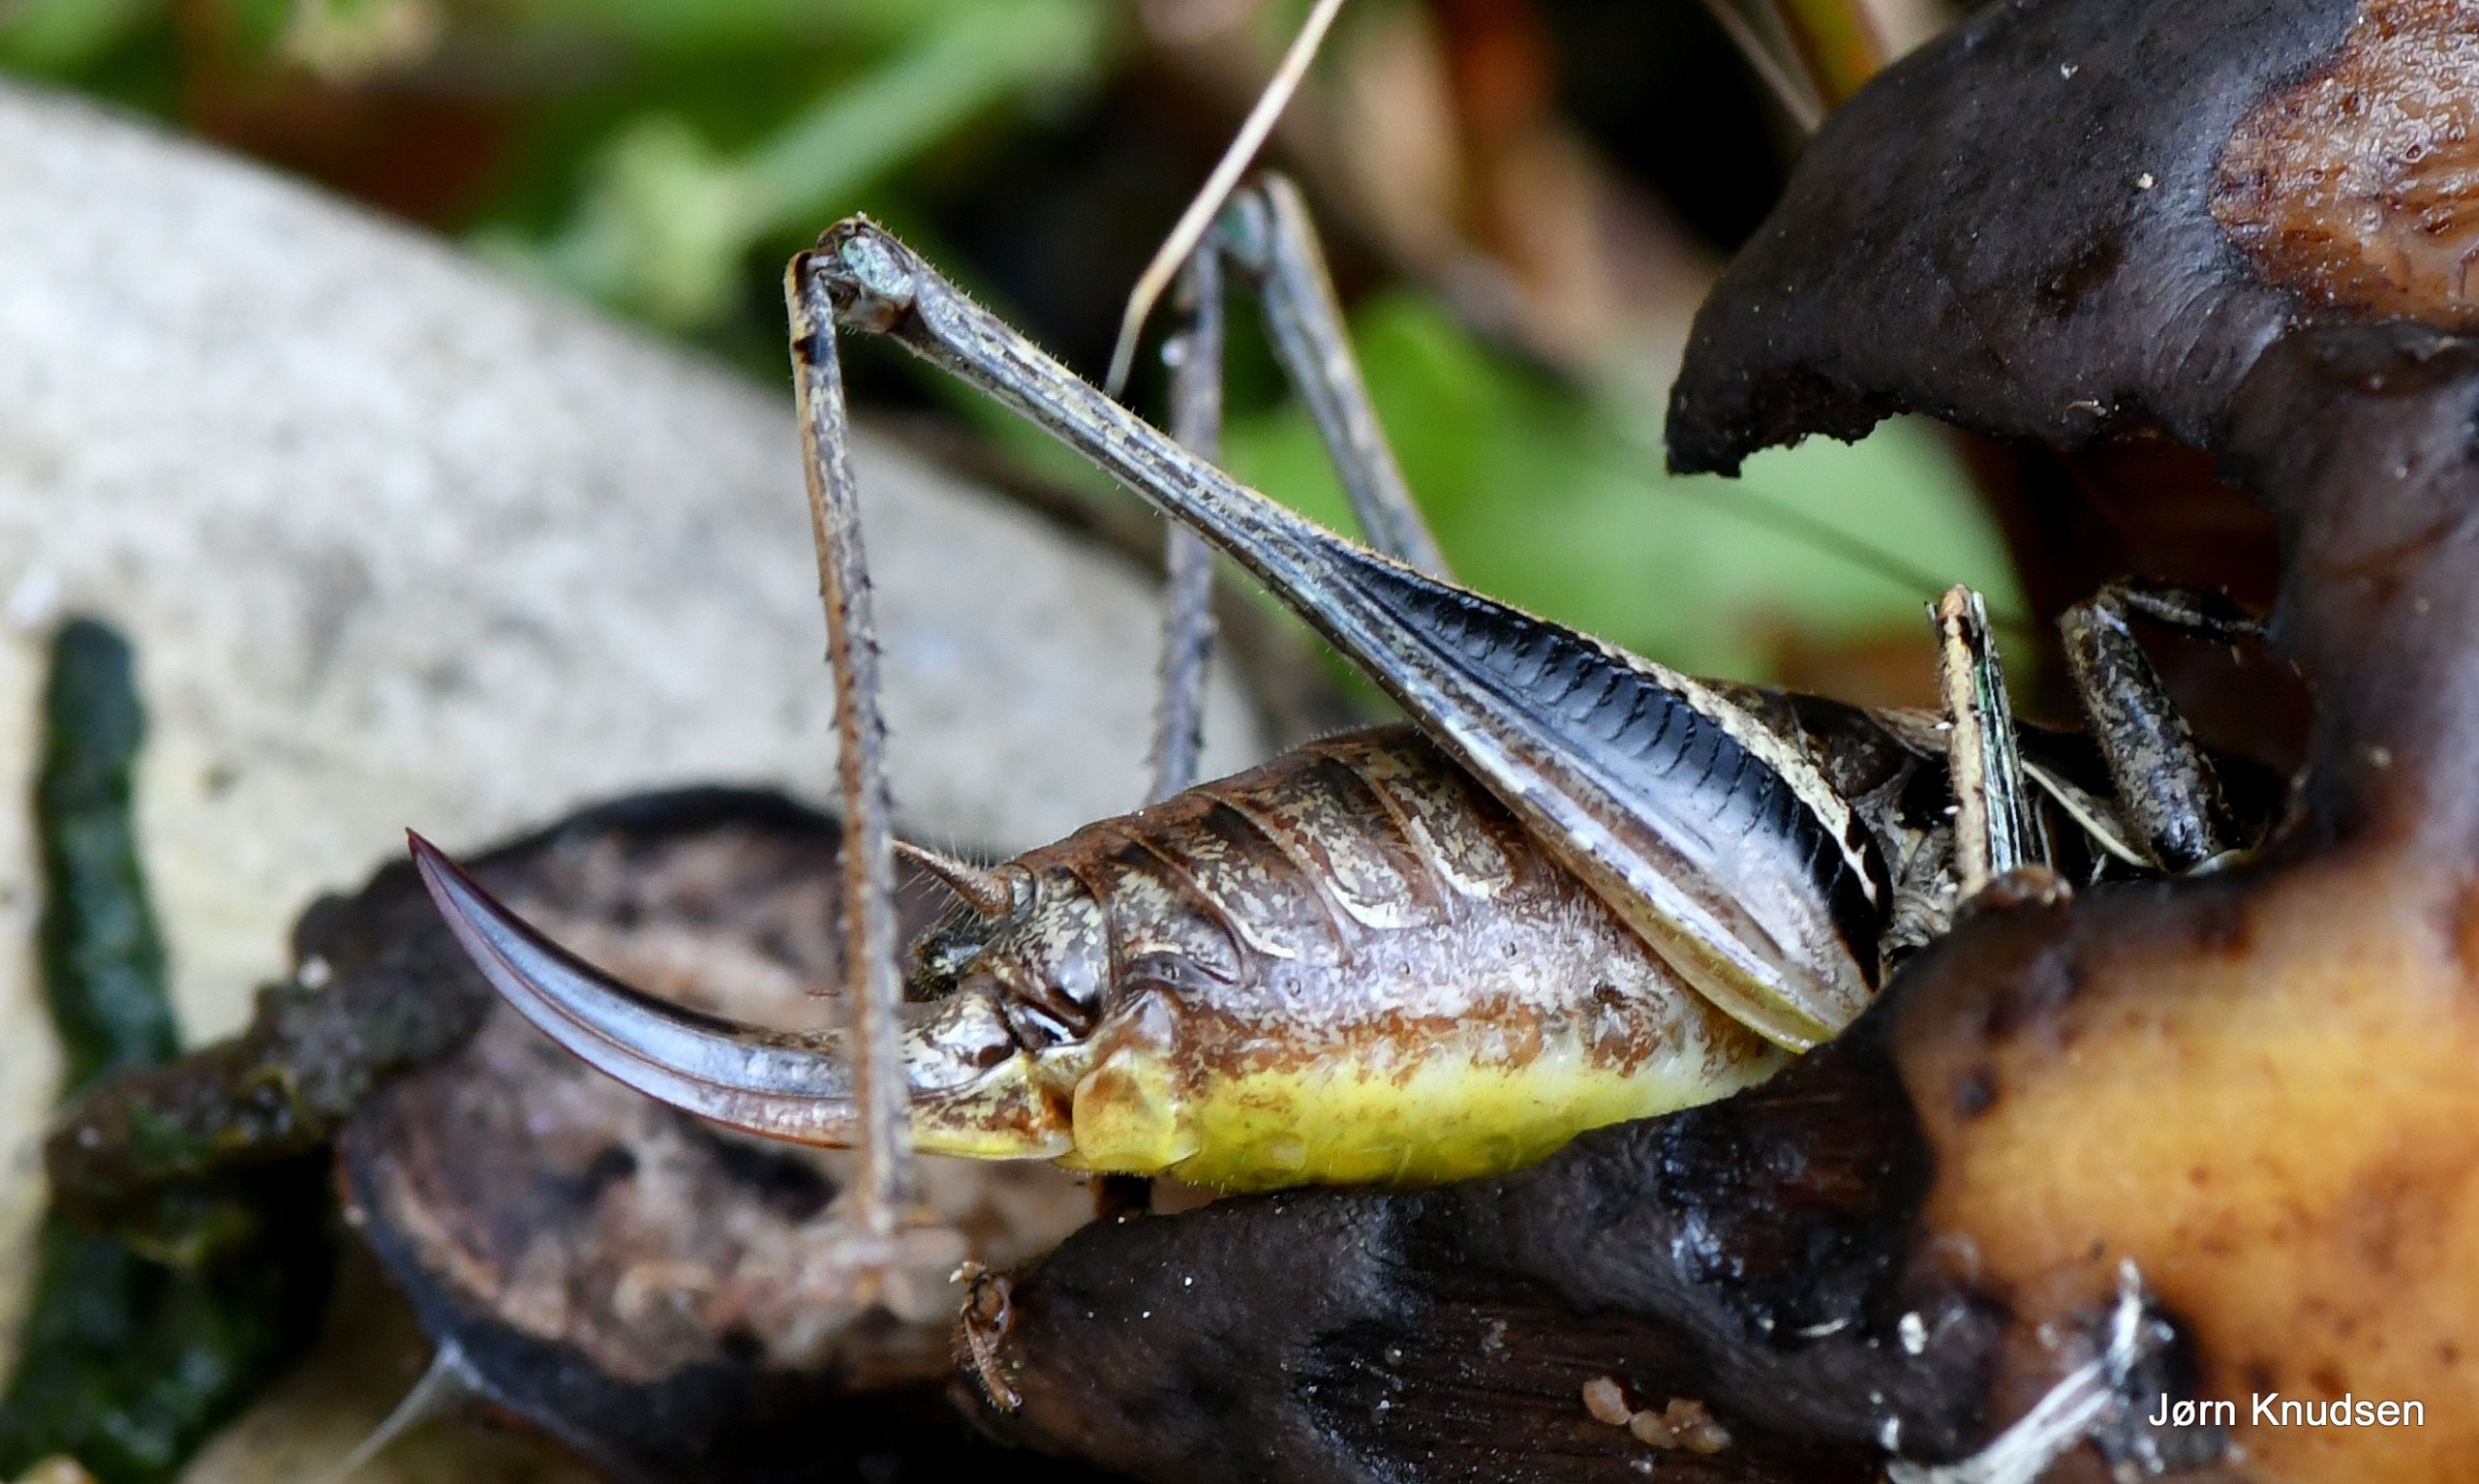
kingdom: Animalia
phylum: Arthropoda
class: Insecta
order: Orthoptera
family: Tettigoniidae
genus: Pholidoptera
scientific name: Pholidoptera griseoaptera
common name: Buskgræshoppe
